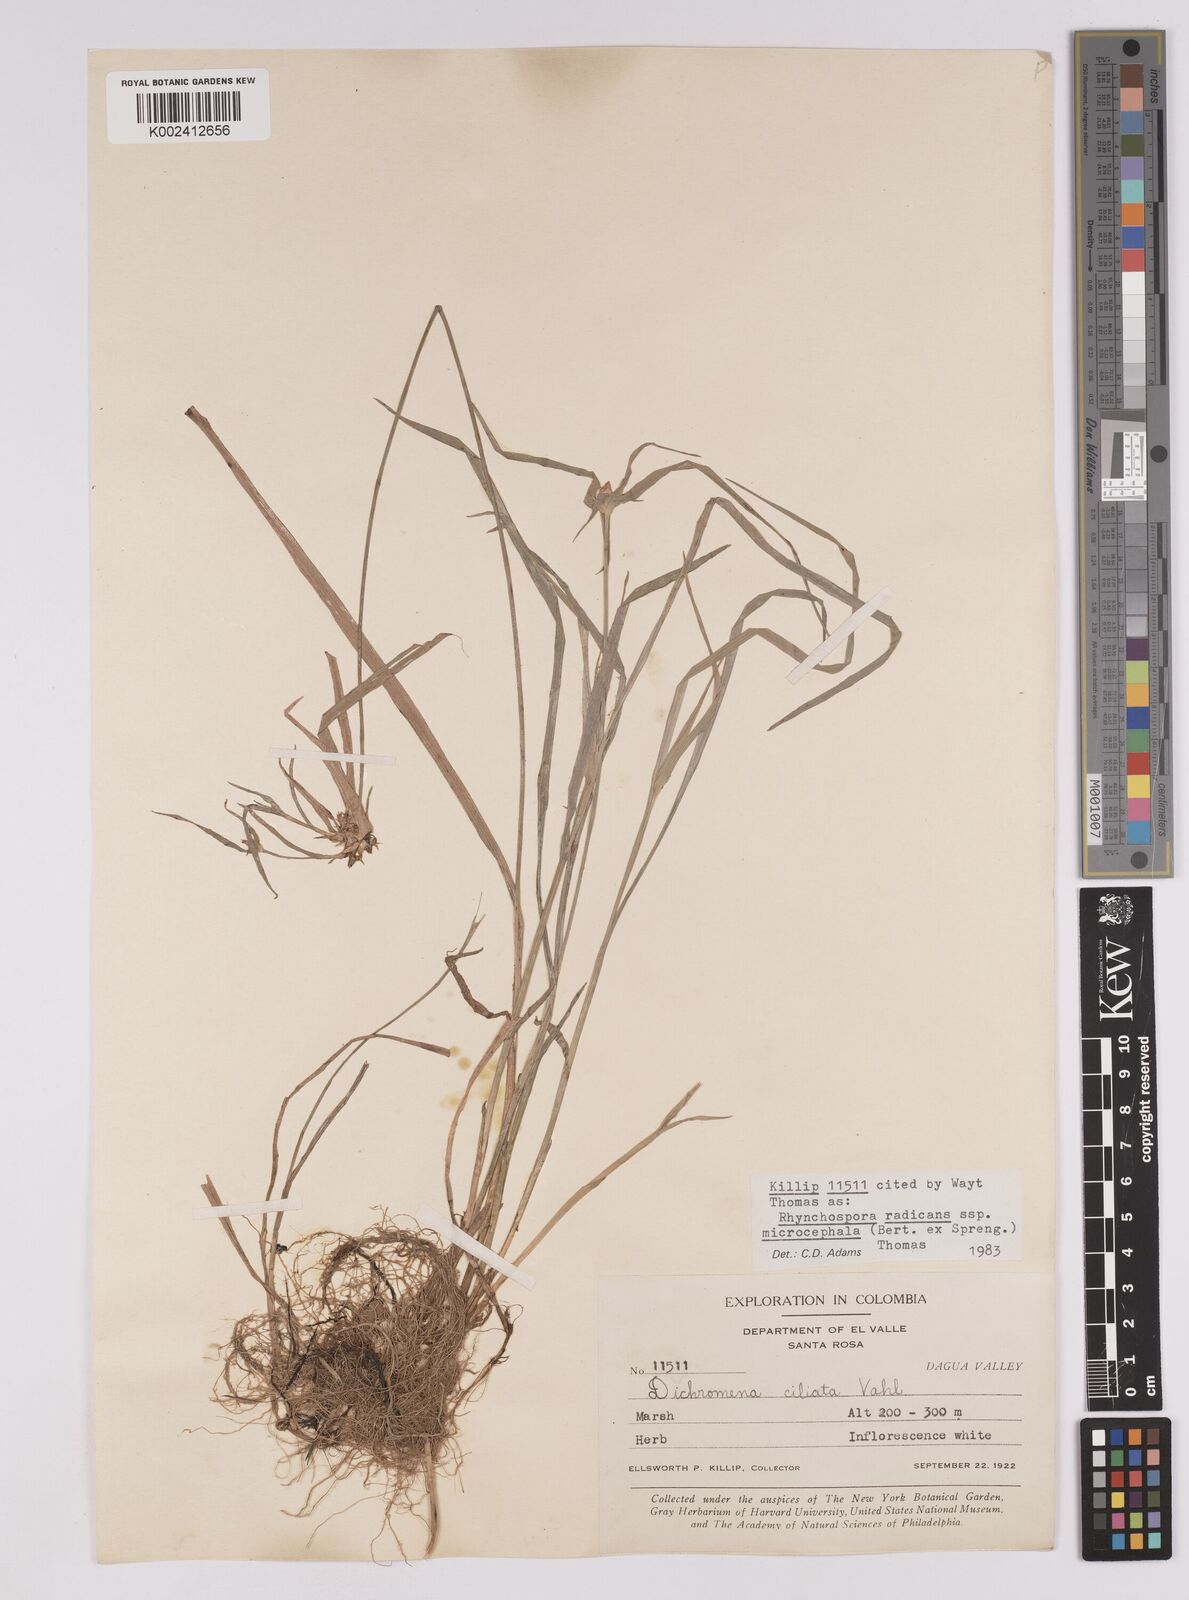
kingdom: Plantae
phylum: Tracheophyta
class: Liliopsida
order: Poales
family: Cyperaceae
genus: Rhynchospora
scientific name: Rhynchospora radicans
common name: Tropical whitetop
